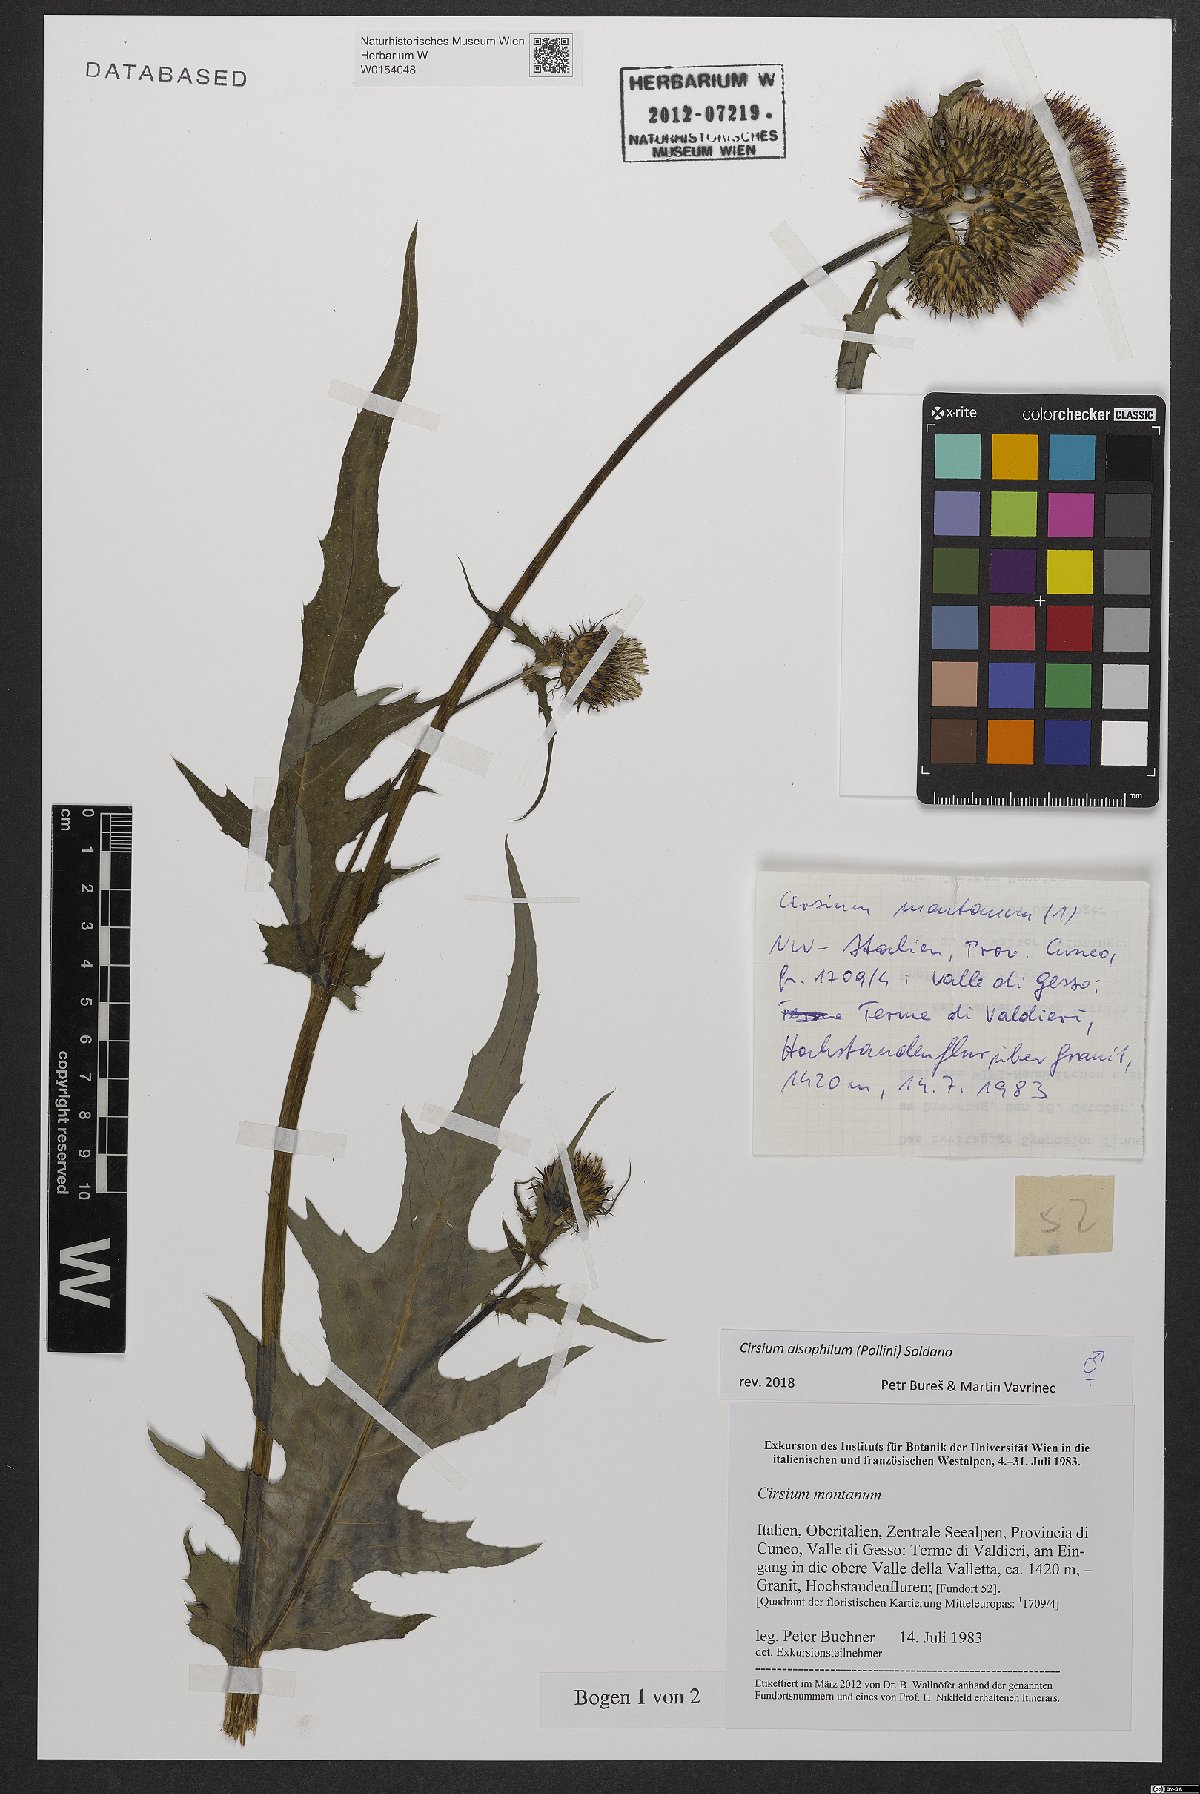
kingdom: Plantae
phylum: Tracheophyta
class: Magnoliopsida
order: Asterales
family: Asteraceae
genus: Cirsium
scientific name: Cirsium alsophilum
